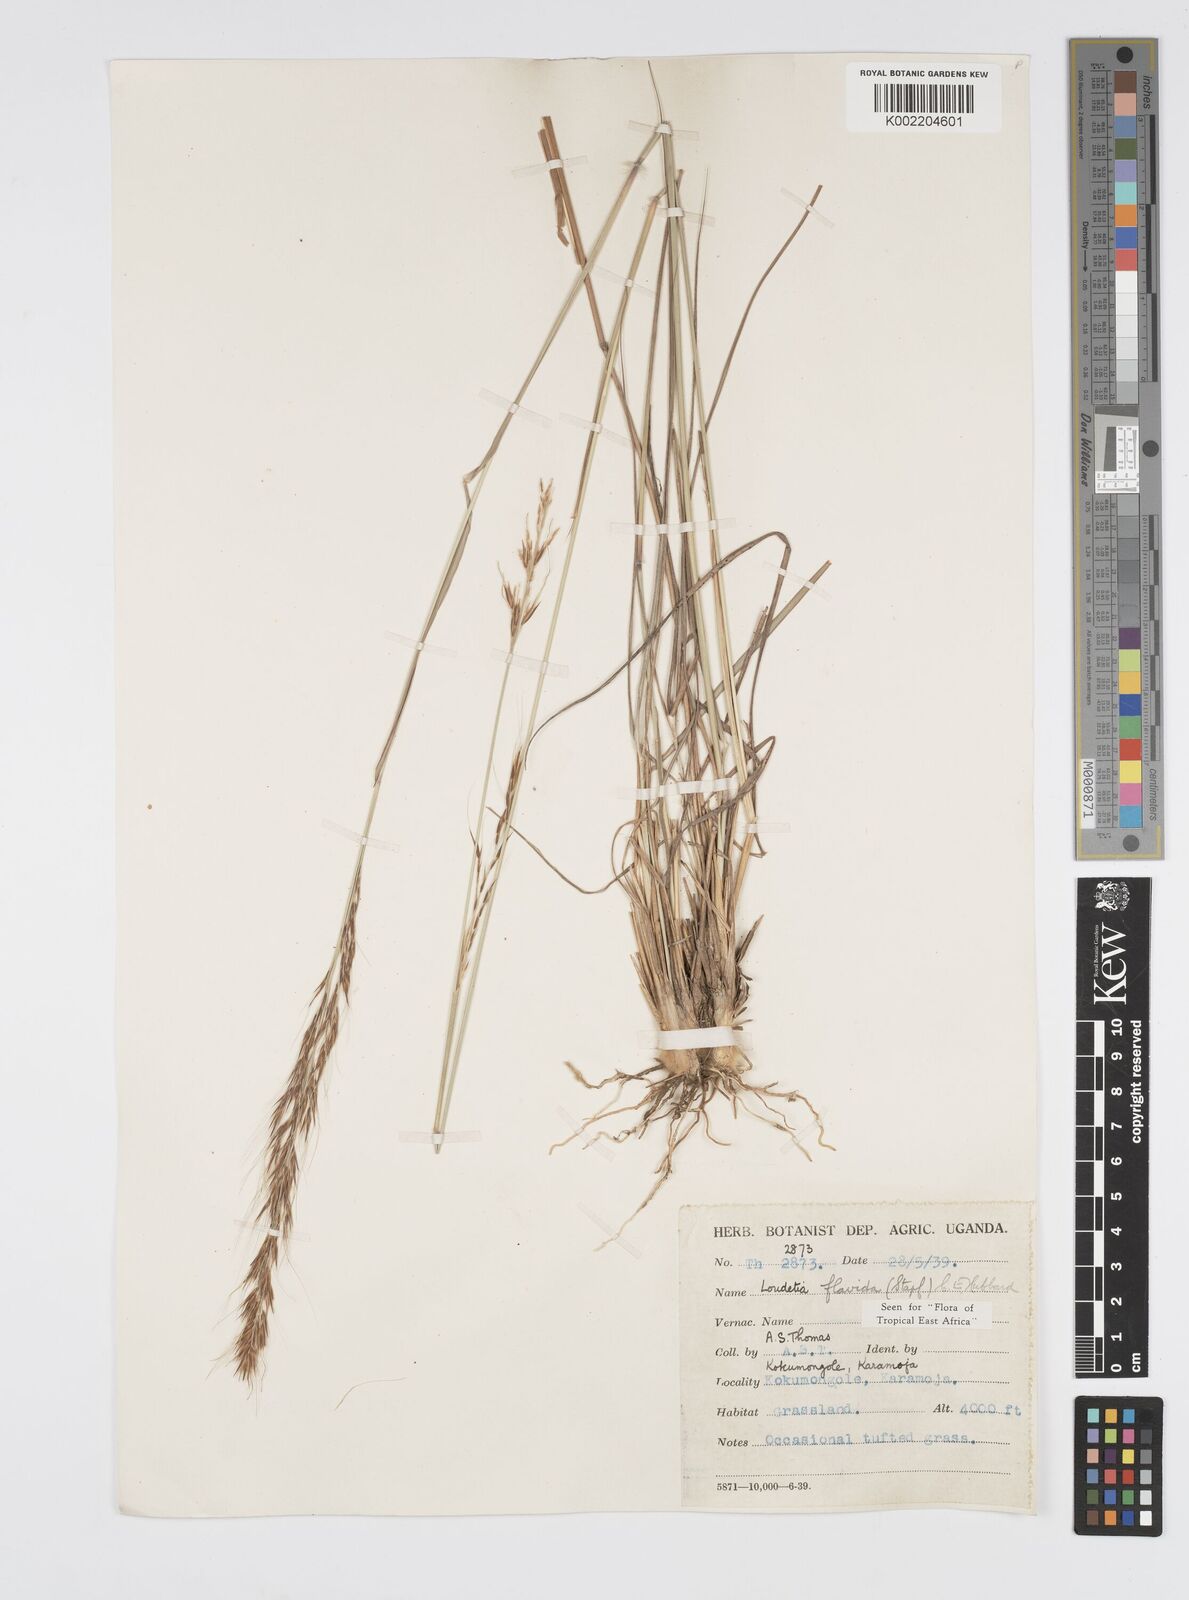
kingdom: Plantae
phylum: Tracheophyta
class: Liliopsida
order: Poales
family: Poaceae
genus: Loudetia
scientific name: Loudetia flavida
